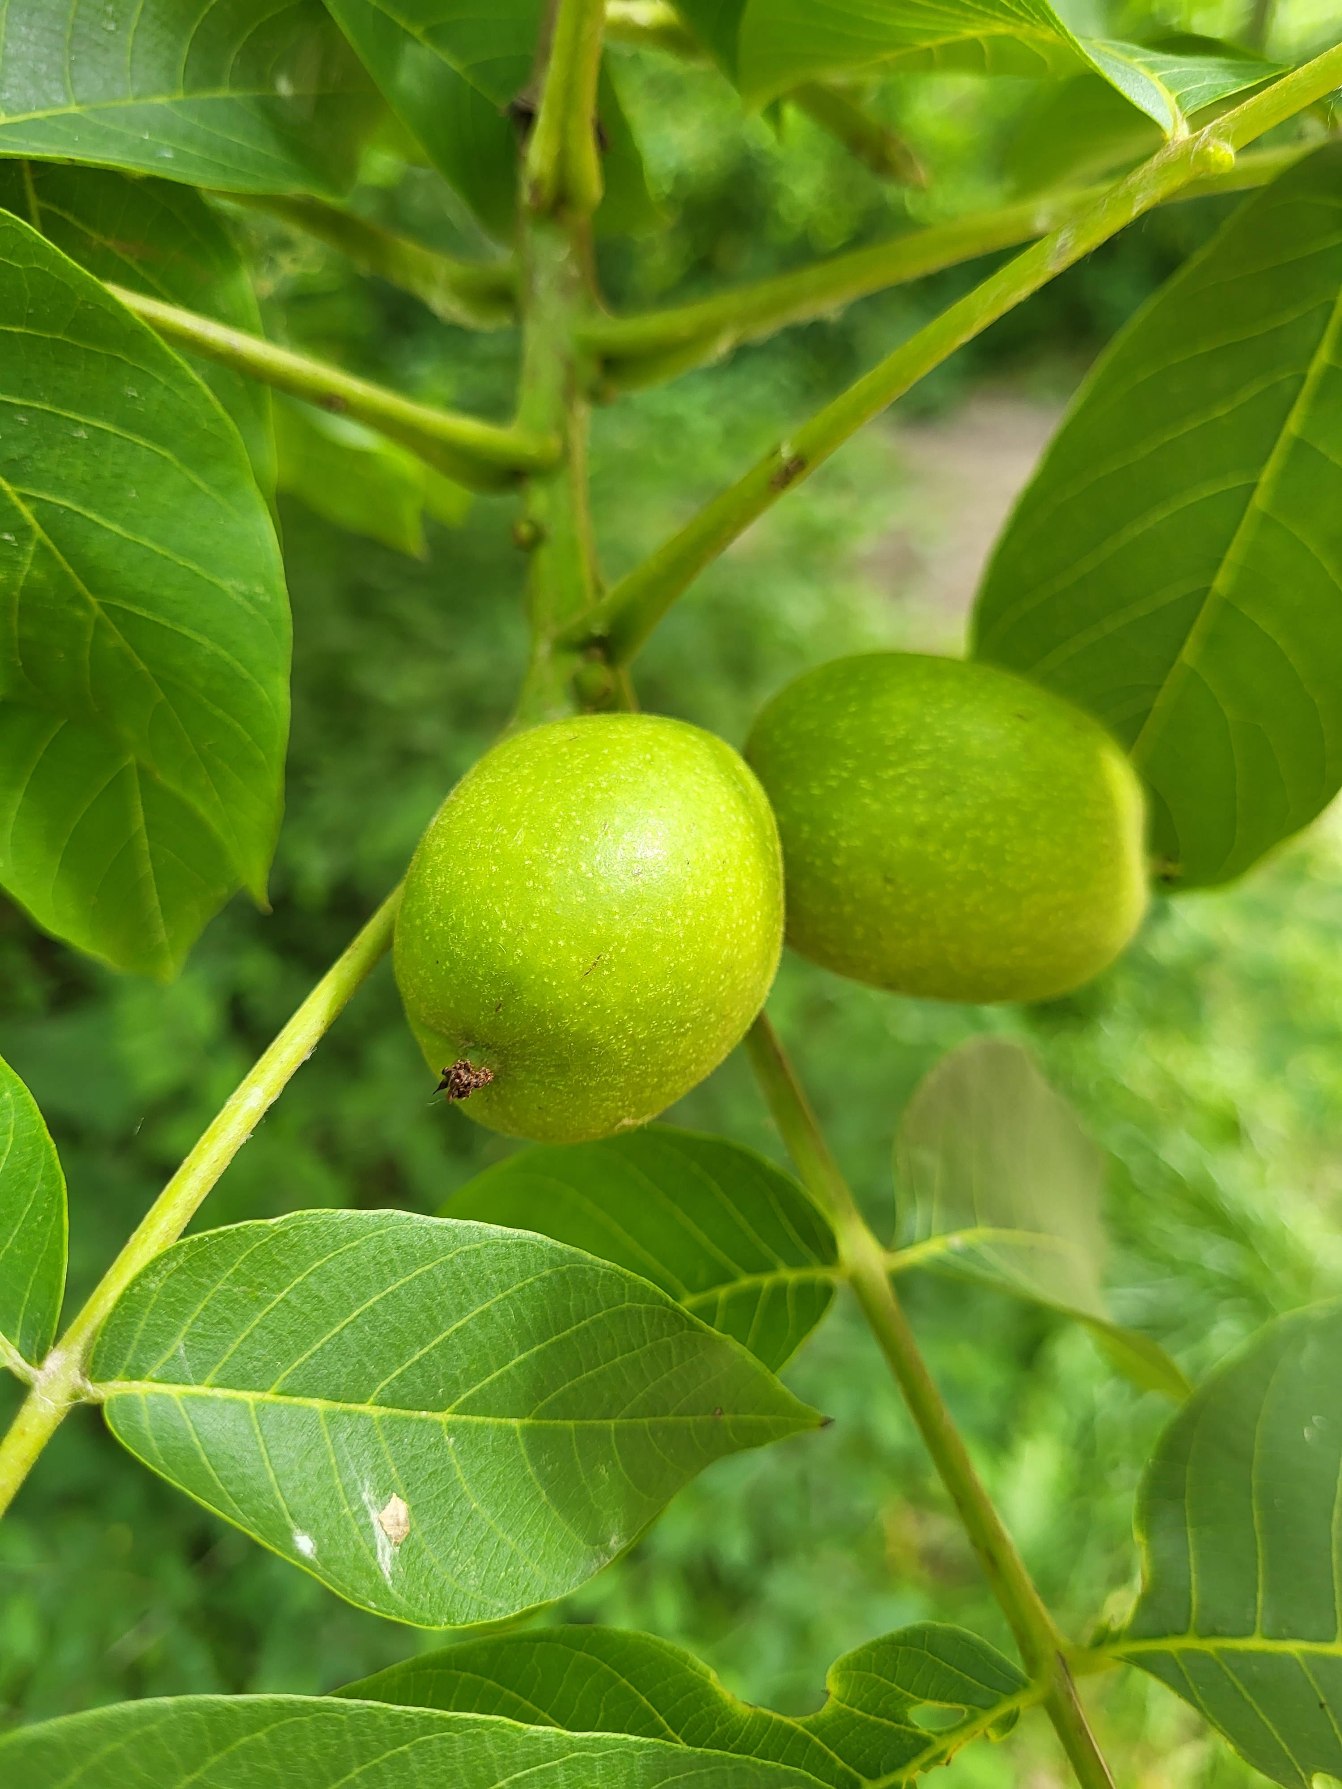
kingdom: Plantae
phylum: Tracheophyta
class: Magnoliopsida
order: Fagales
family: Juglandaceae
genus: Juglans
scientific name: Juglans regia
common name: Almindelig valnød
